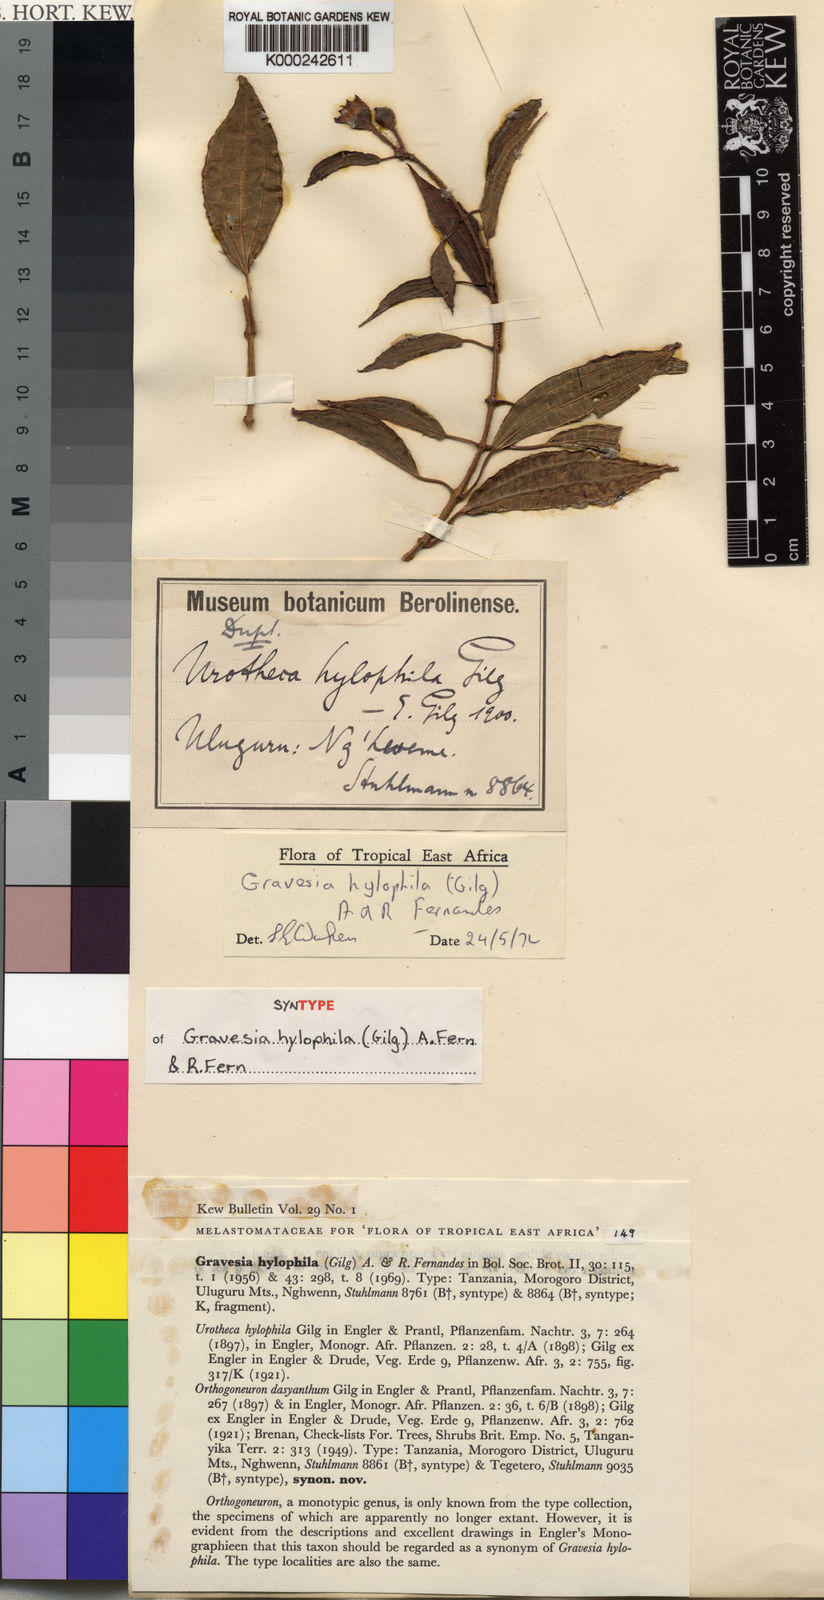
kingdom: Plantae
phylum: Tracheophyta
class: Magnoliopsida
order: Myrtales
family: Melastomataceae
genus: Gravesia
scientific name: Gravesia hylophila
